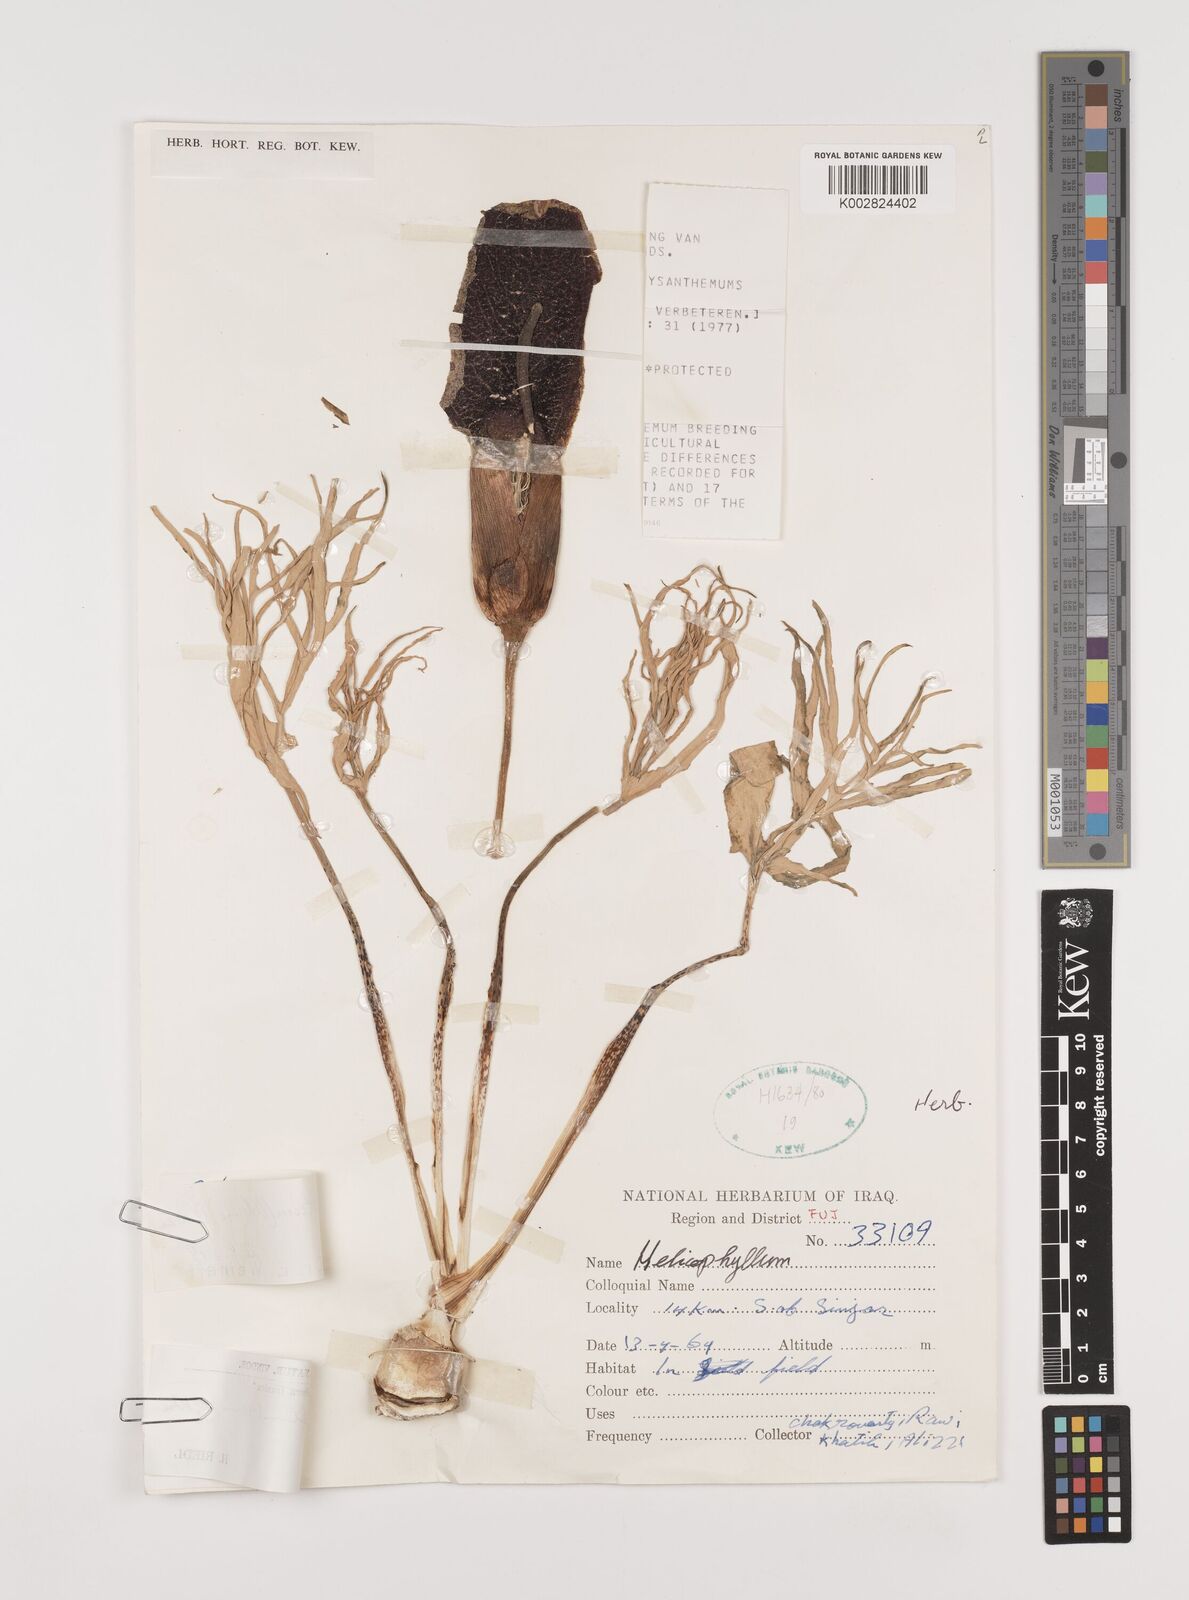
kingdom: Plantae
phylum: Tracheophyta
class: Liliopsida
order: Alismatales
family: Araceae
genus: Eminium
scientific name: Eminium spiculatum
